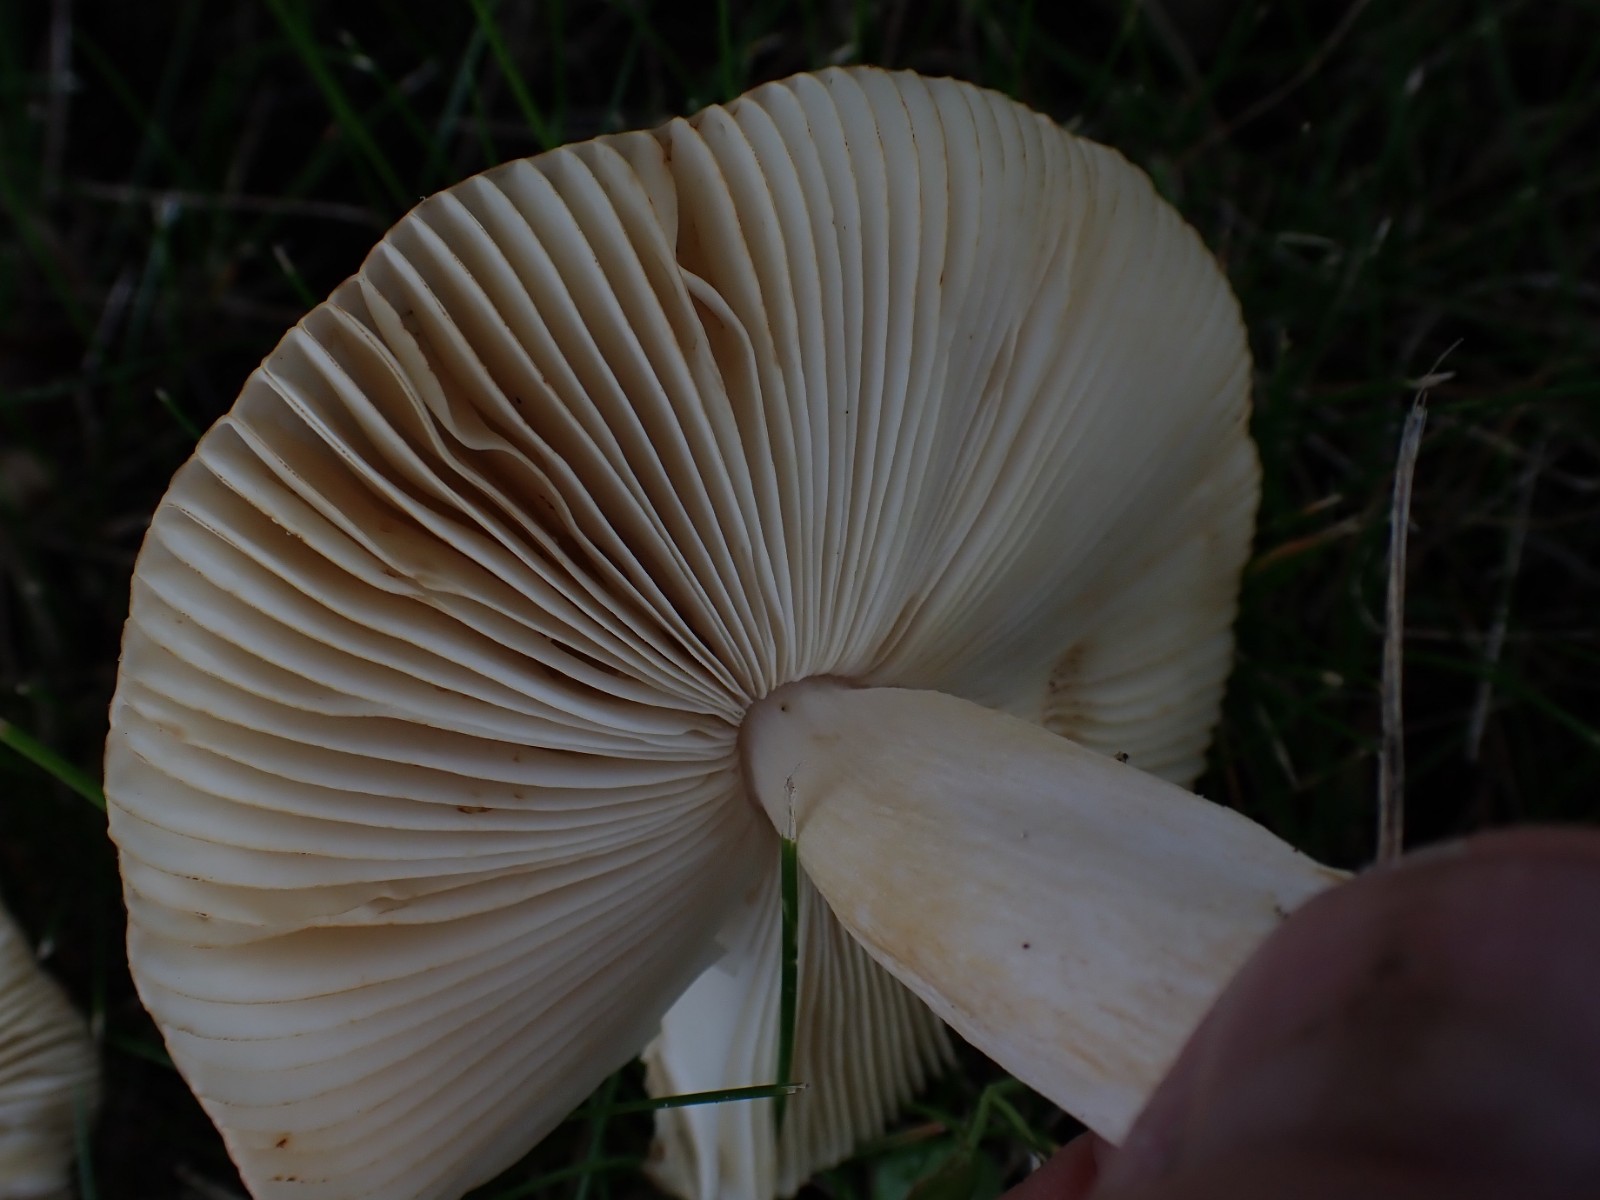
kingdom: Fungi
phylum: Basidiomycota
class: Agaricomycetes
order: Russulales
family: Russulaceae
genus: Russula
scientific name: Russula versicolor
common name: foranderlig skørhat
